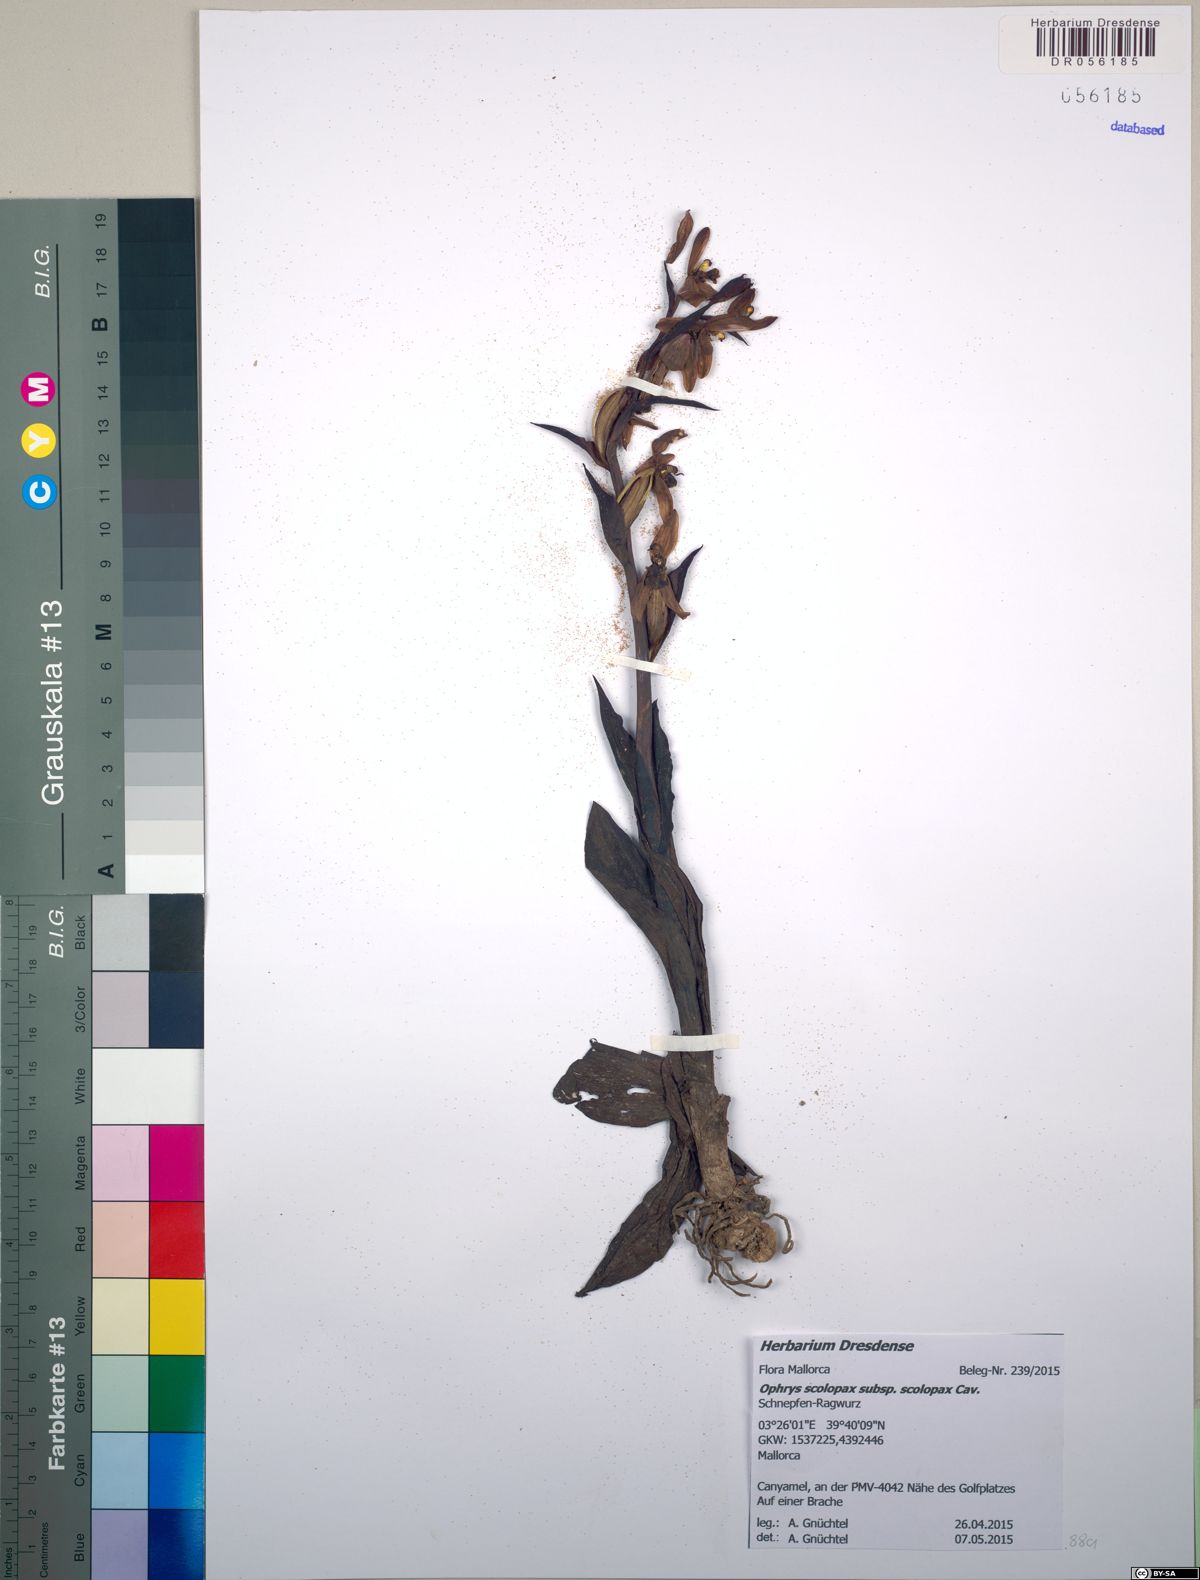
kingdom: Plantae
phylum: Tracheophyta
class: Liliopsida
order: Asparagales
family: Orchidaceae
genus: Ophrys
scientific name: Ophrys scolopax
